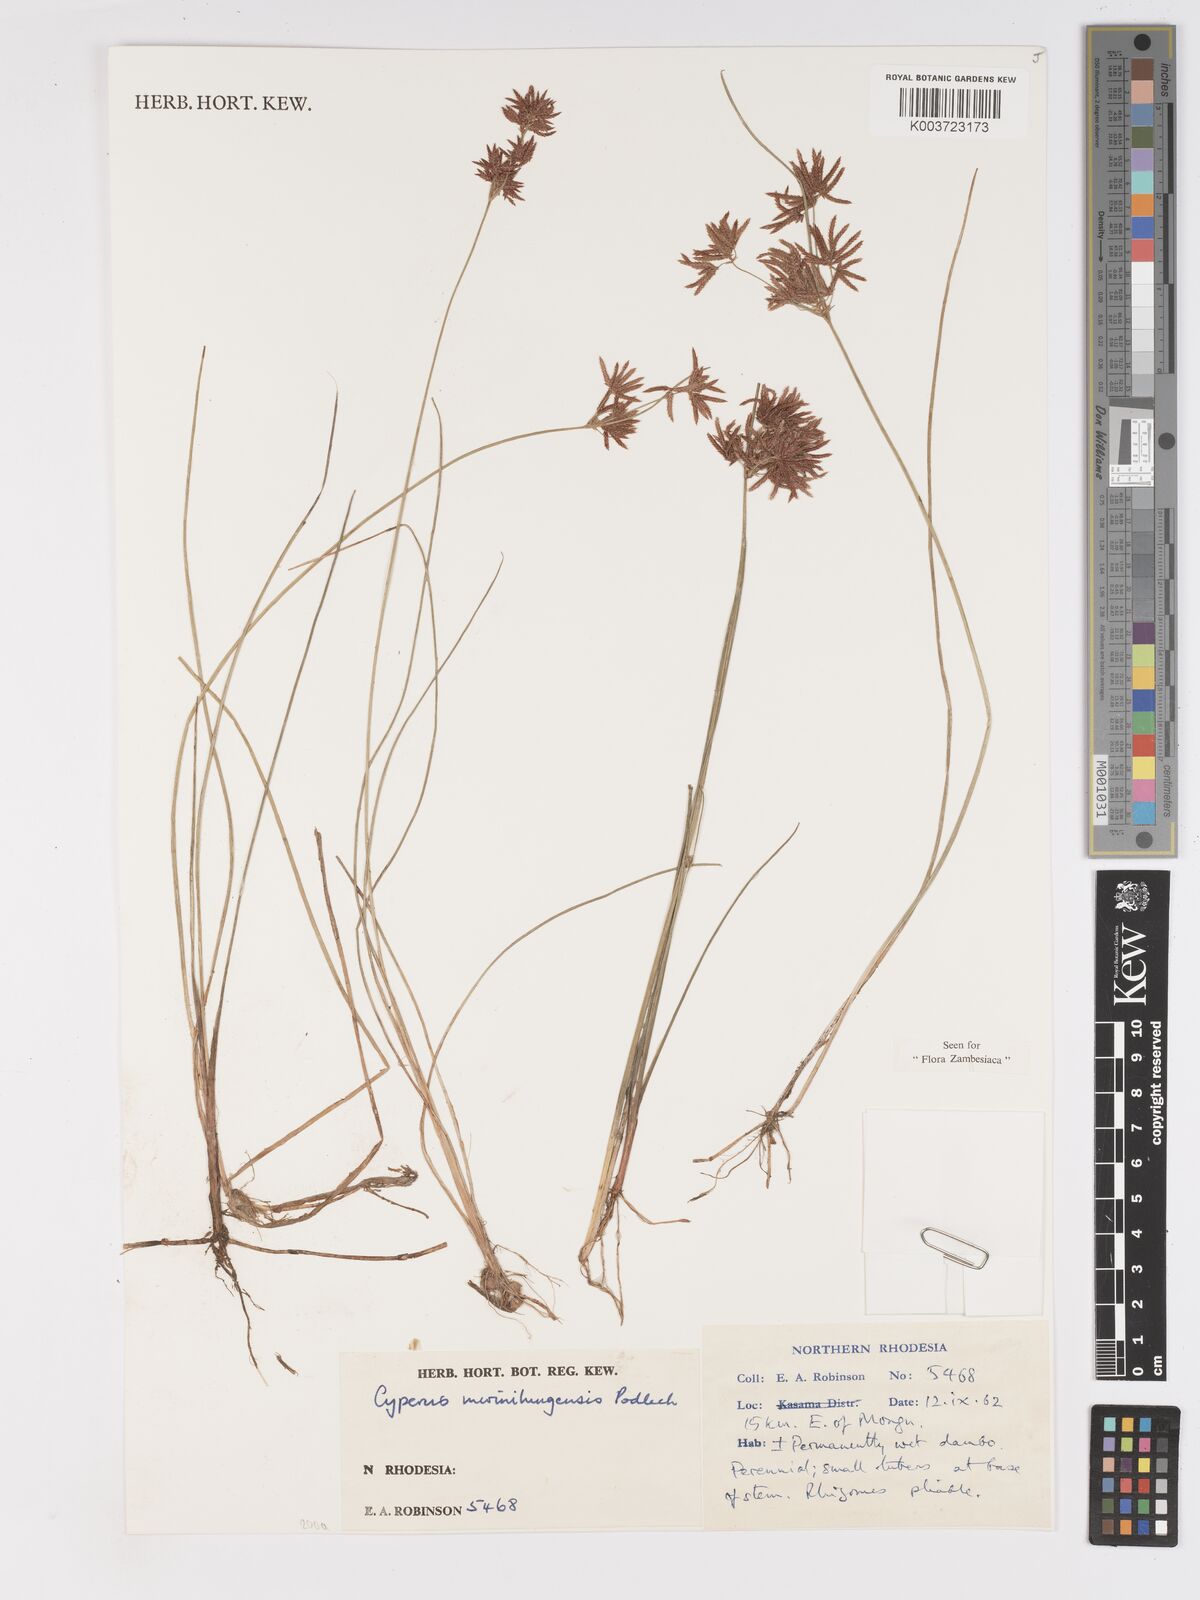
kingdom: Plantae
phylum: Tracheophyta
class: Liliopsida
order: Poales
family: Cyperaceae
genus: Cyperus
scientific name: Cyperus mwinilungensis
